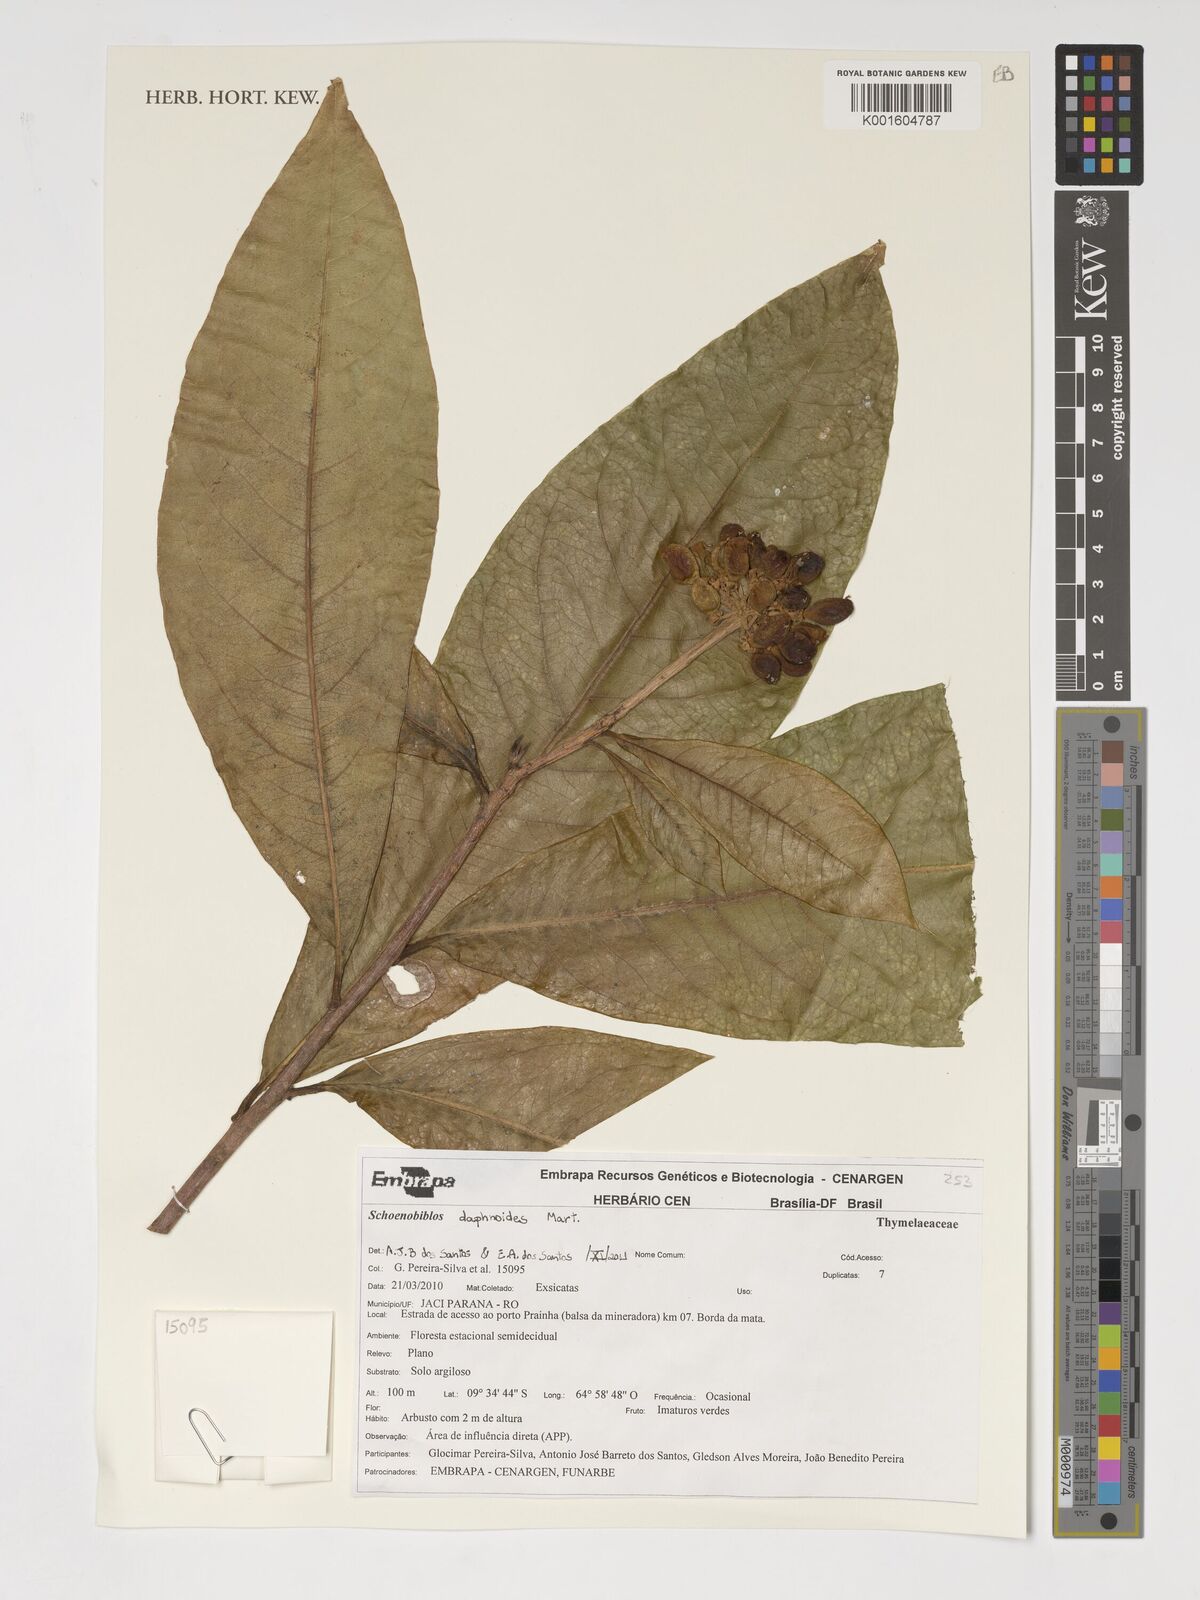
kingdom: Plantae
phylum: Tracheophyta
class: Magnoliopsida
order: Malvales
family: Thymelaeaceae
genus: Schoenobiblus
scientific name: Schoenobiblus daphnoides
